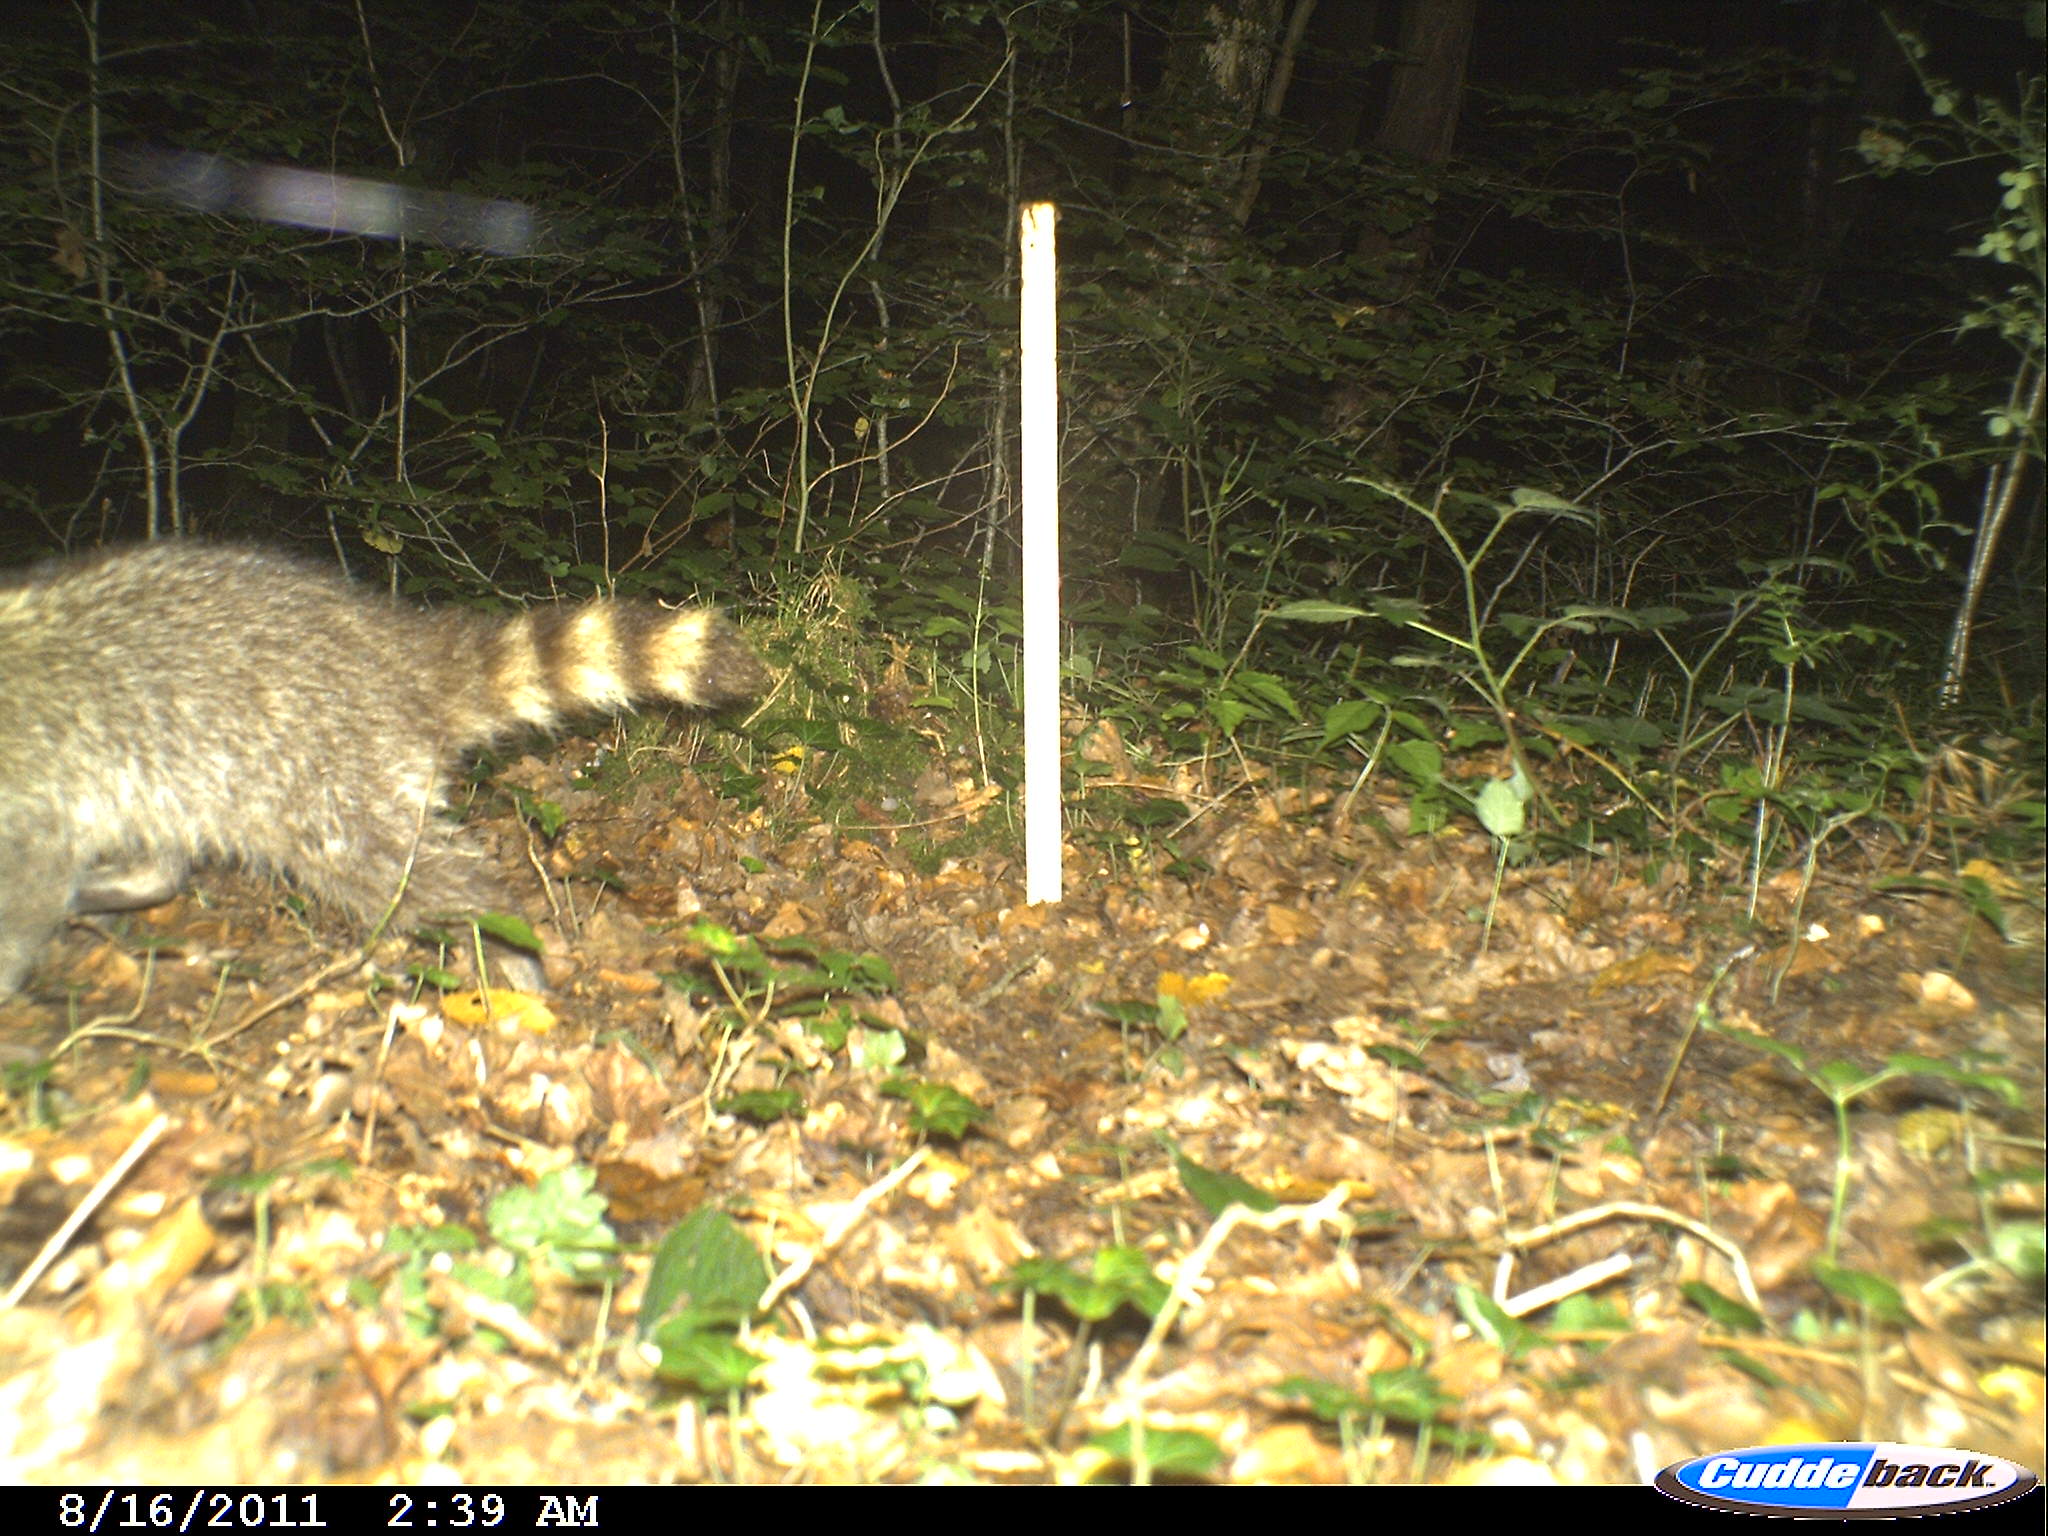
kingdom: Animalia
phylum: Chordata
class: Mammalia
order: Carnivora
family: Procyonidae
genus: Procyon
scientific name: Procyon lotor
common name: Raccoon
